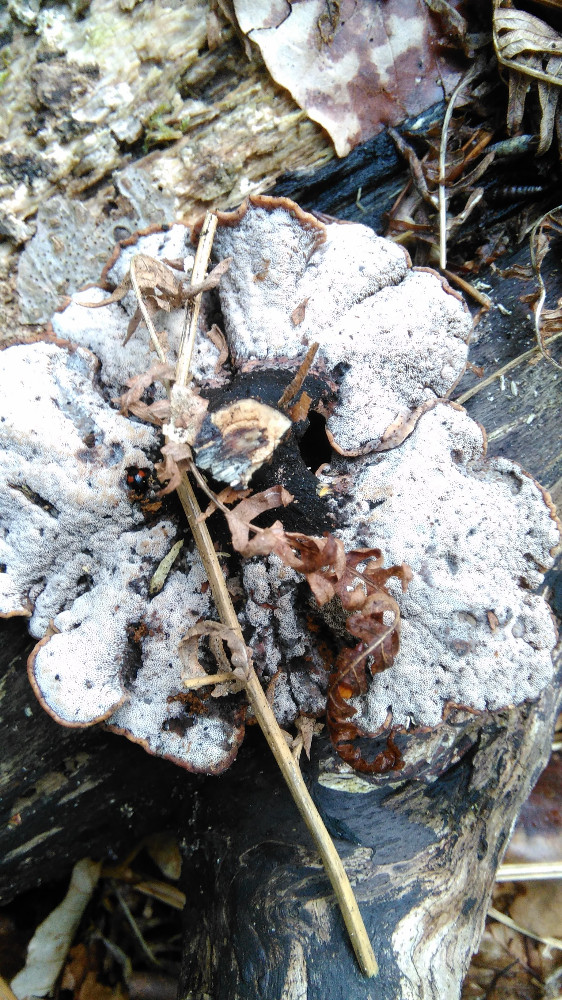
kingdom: Fungi
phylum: Basidiomycota
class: Agaricomycetes
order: Polyporales
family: Polyporaceae
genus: Cerioporus
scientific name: Cerioporus varius
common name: foranderlig stilkporesvamp
